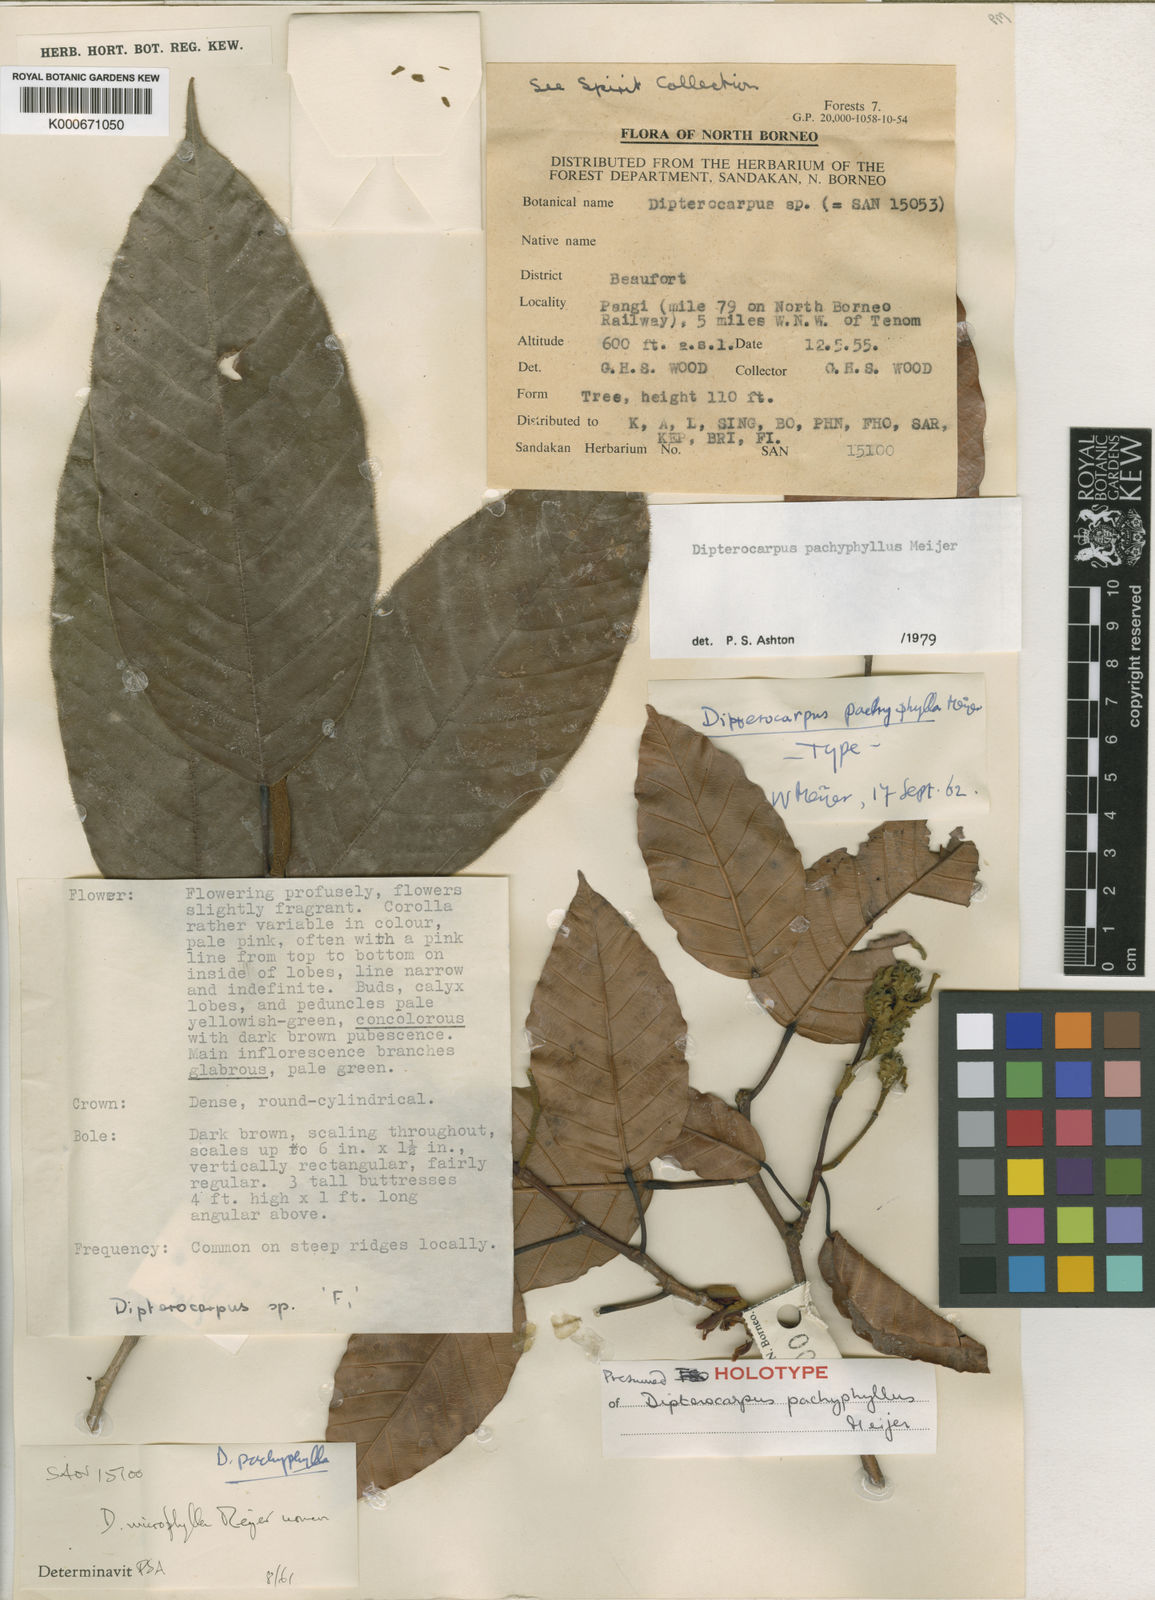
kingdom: Plantae
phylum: Tracheophyta
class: Magnoliopsida
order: Malvales
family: Dipterocarpaceae
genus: Dipterocarpus
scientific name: Dipterocarpus pachyphyllus
